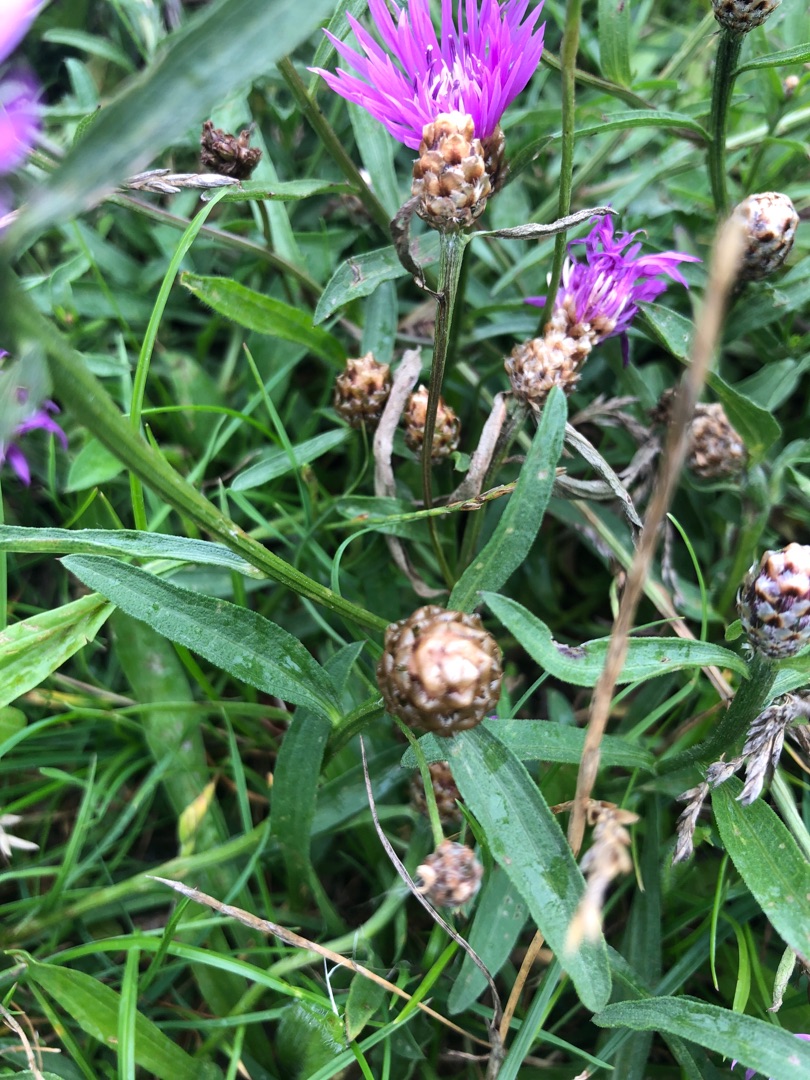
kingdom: Plantae
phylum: Tracheophyta
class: Magnoliopsida
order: Asterales
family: Asteraceae
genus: Centaurea
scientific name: Centaurea jacea
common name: Almindelig knopurt
